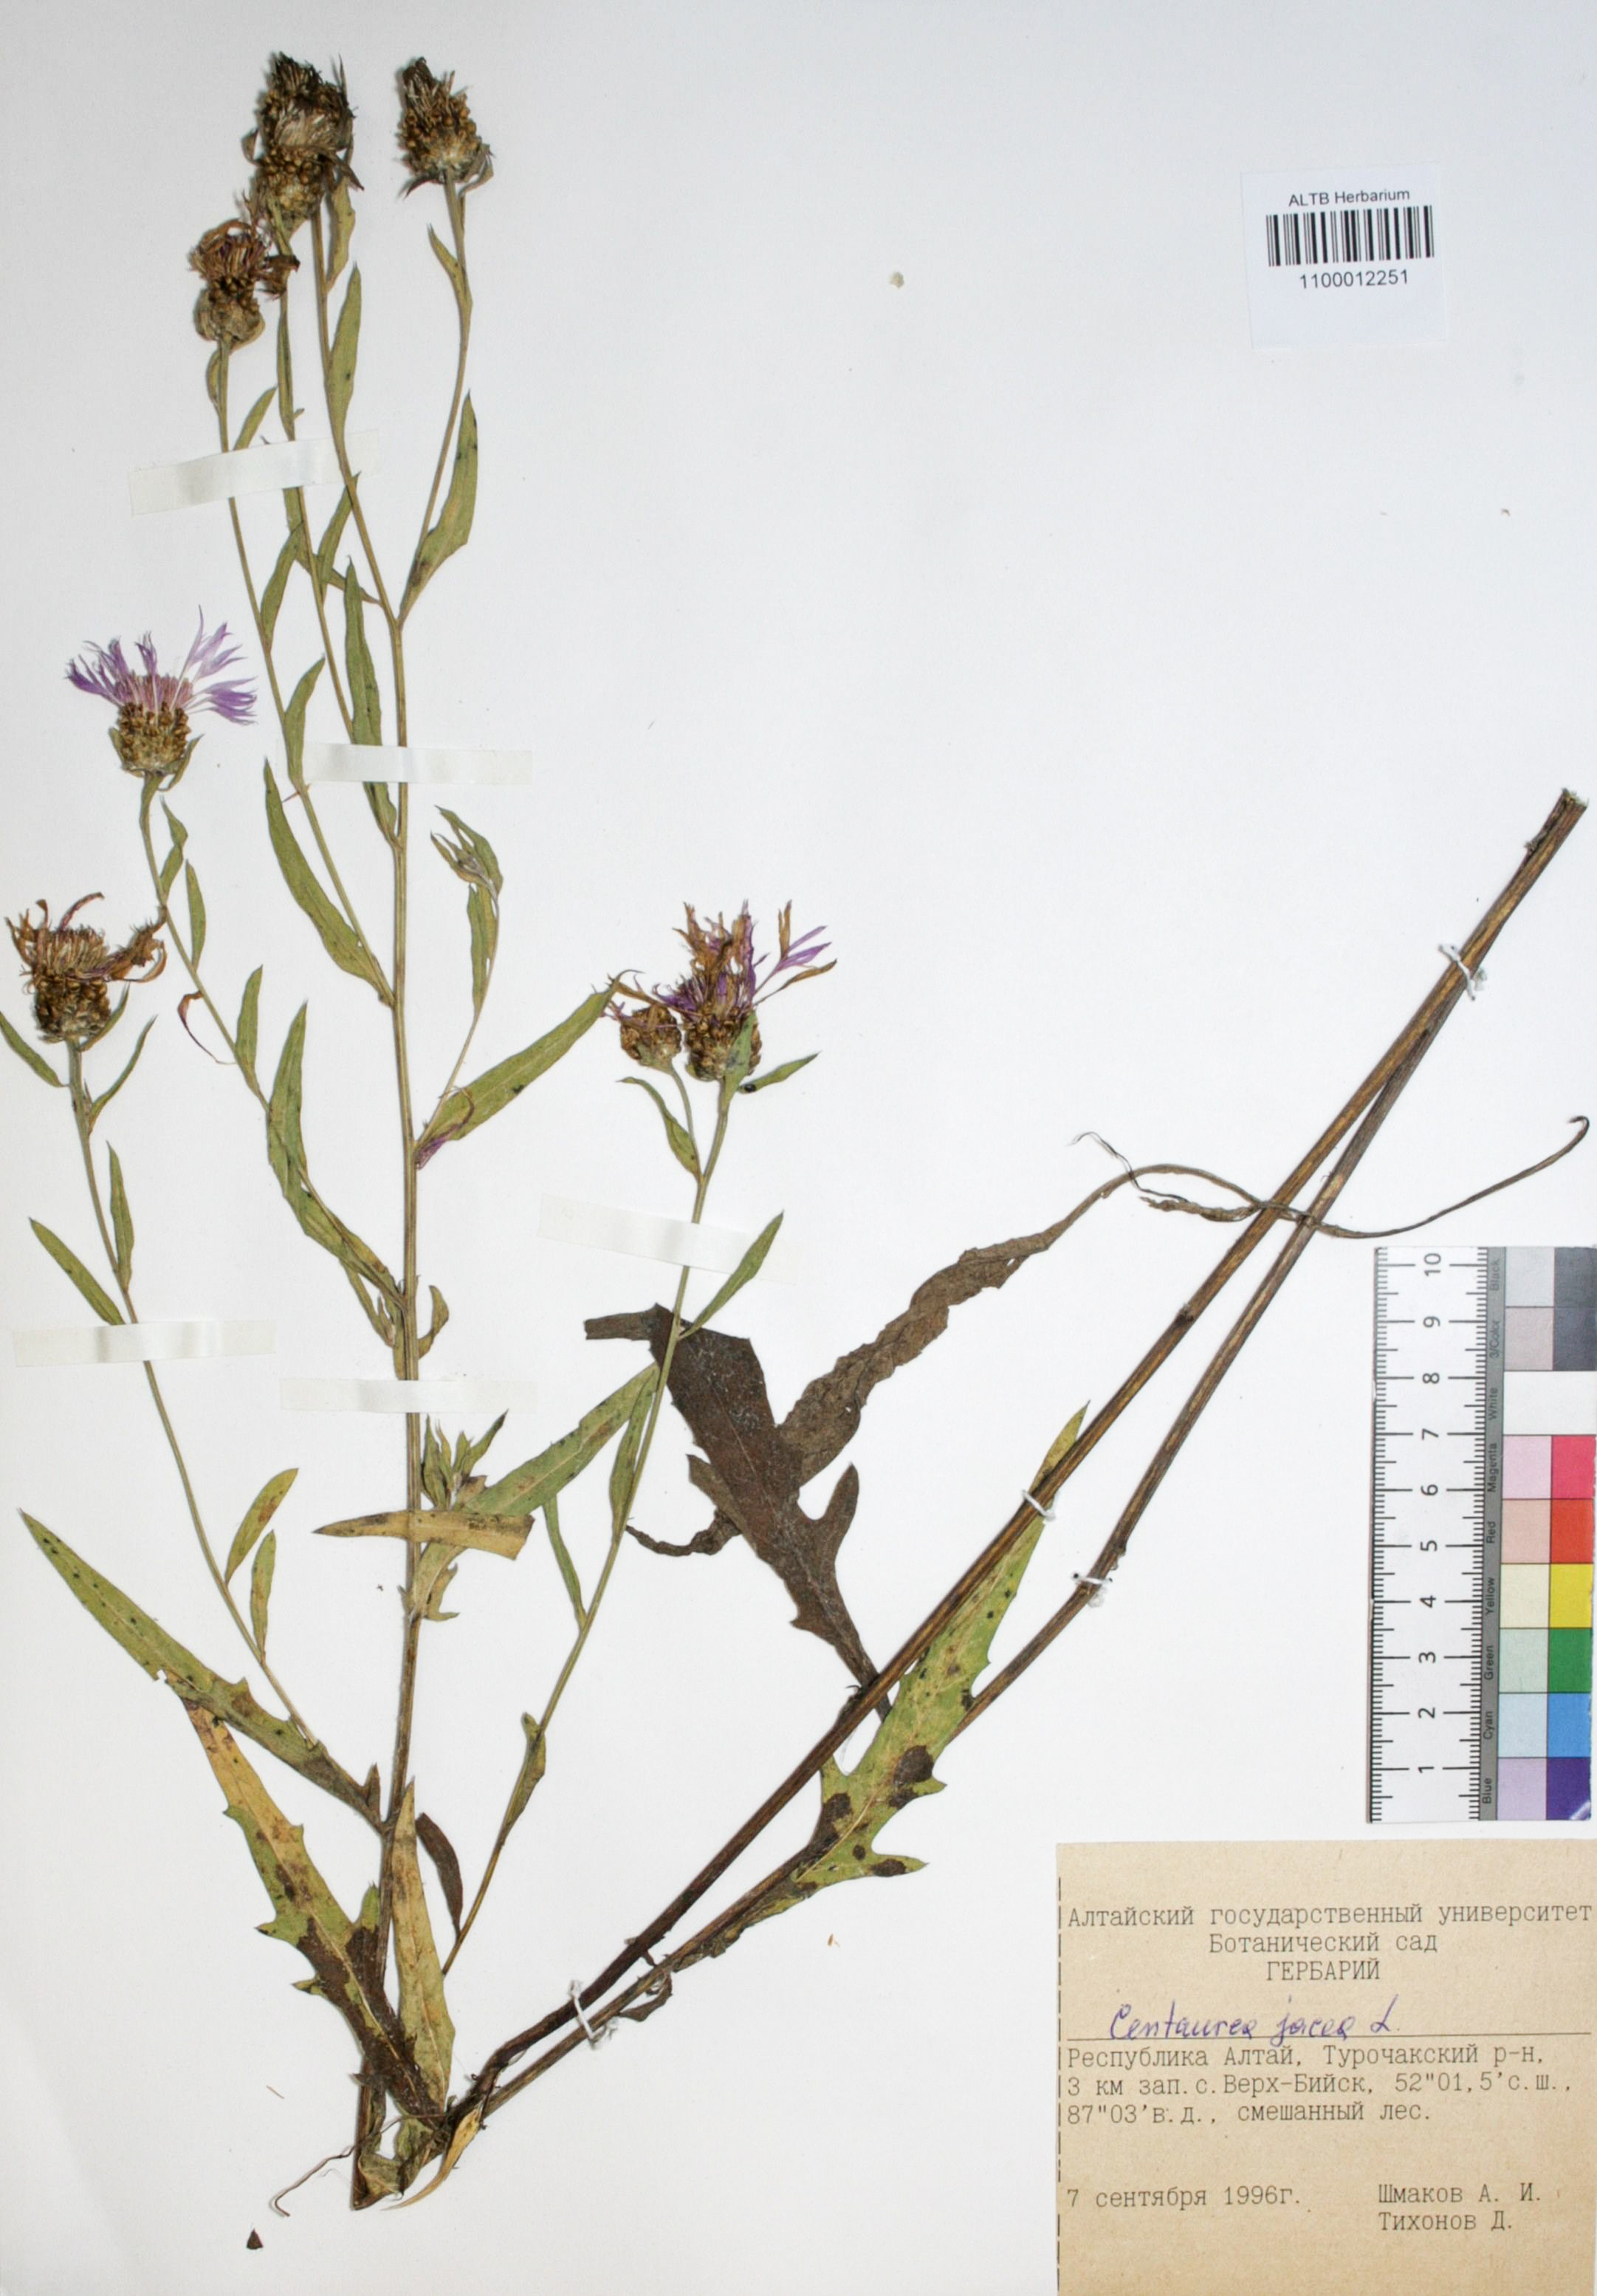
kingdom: Plantae
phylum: Tracheophyta
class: Magnoliopsida
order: Asterales
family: Asteraceae
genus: Centaurea
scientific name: Centaurea jacea
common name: Brown knapweed
